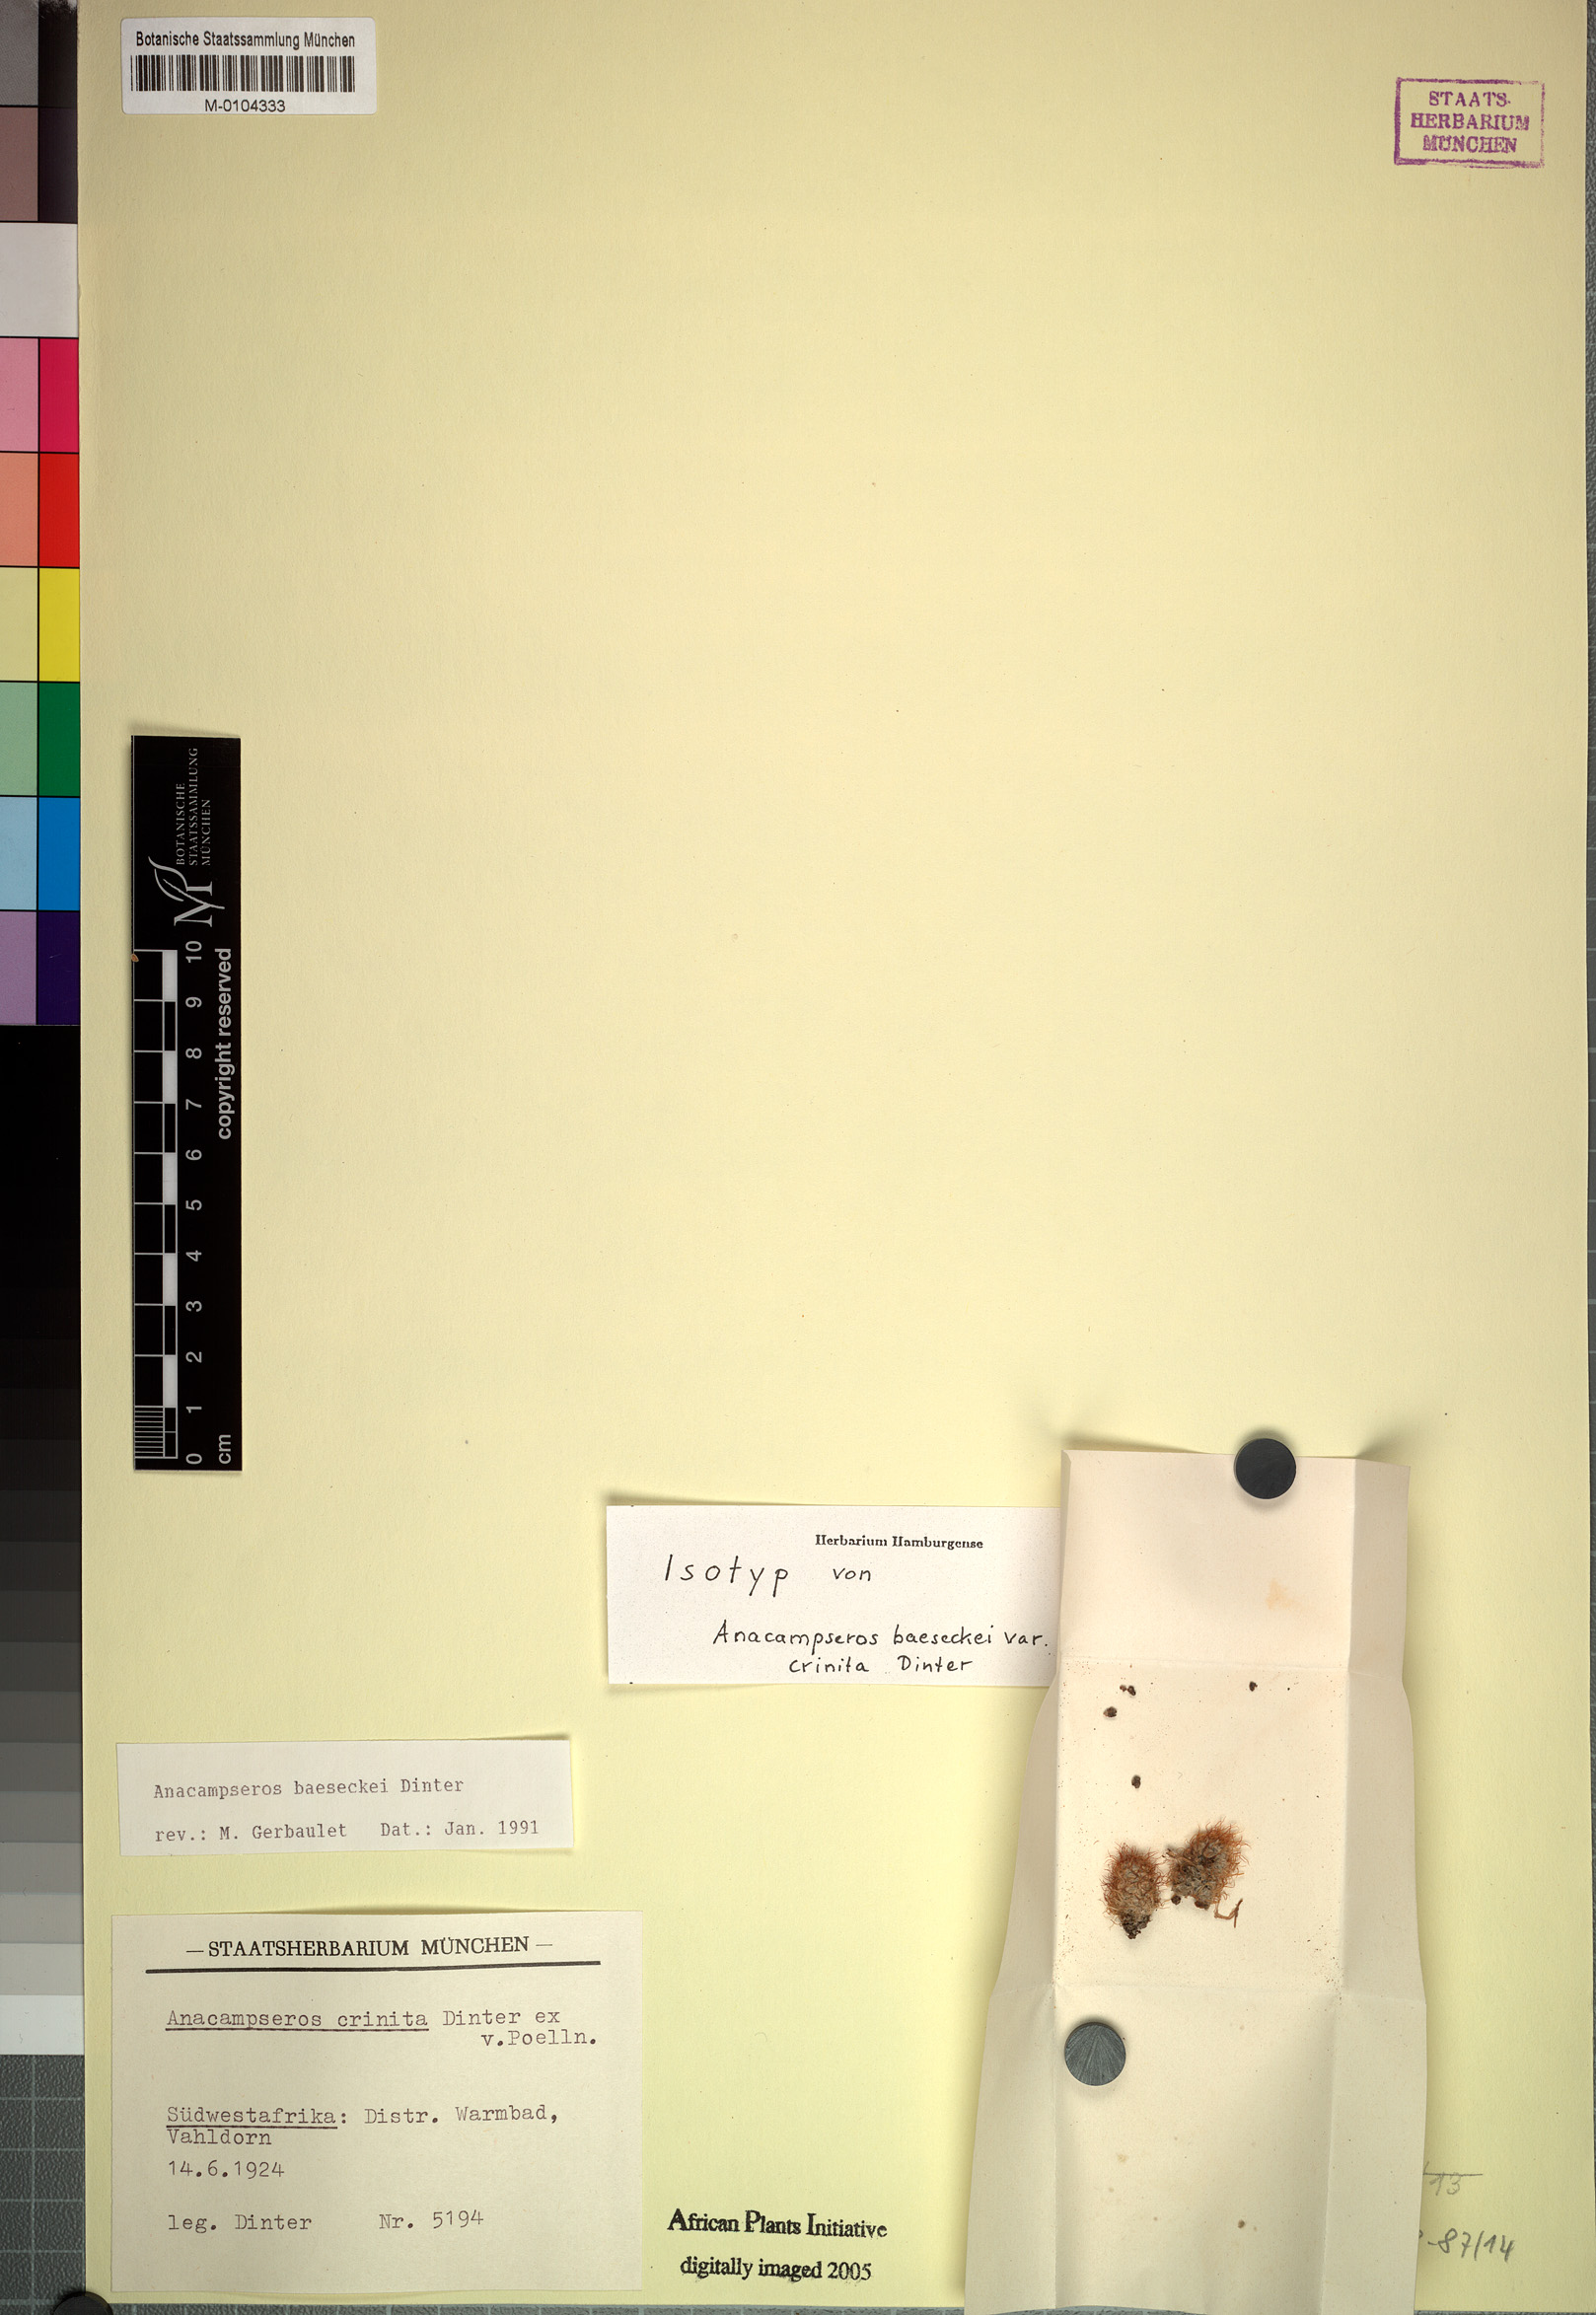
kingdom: Plantae
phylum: Tracheophyta
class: Magnoliopsida
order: Caryophyllales
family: Anacampserotaceae
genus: Anacampseros
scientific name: Anacampseros baeseckei
